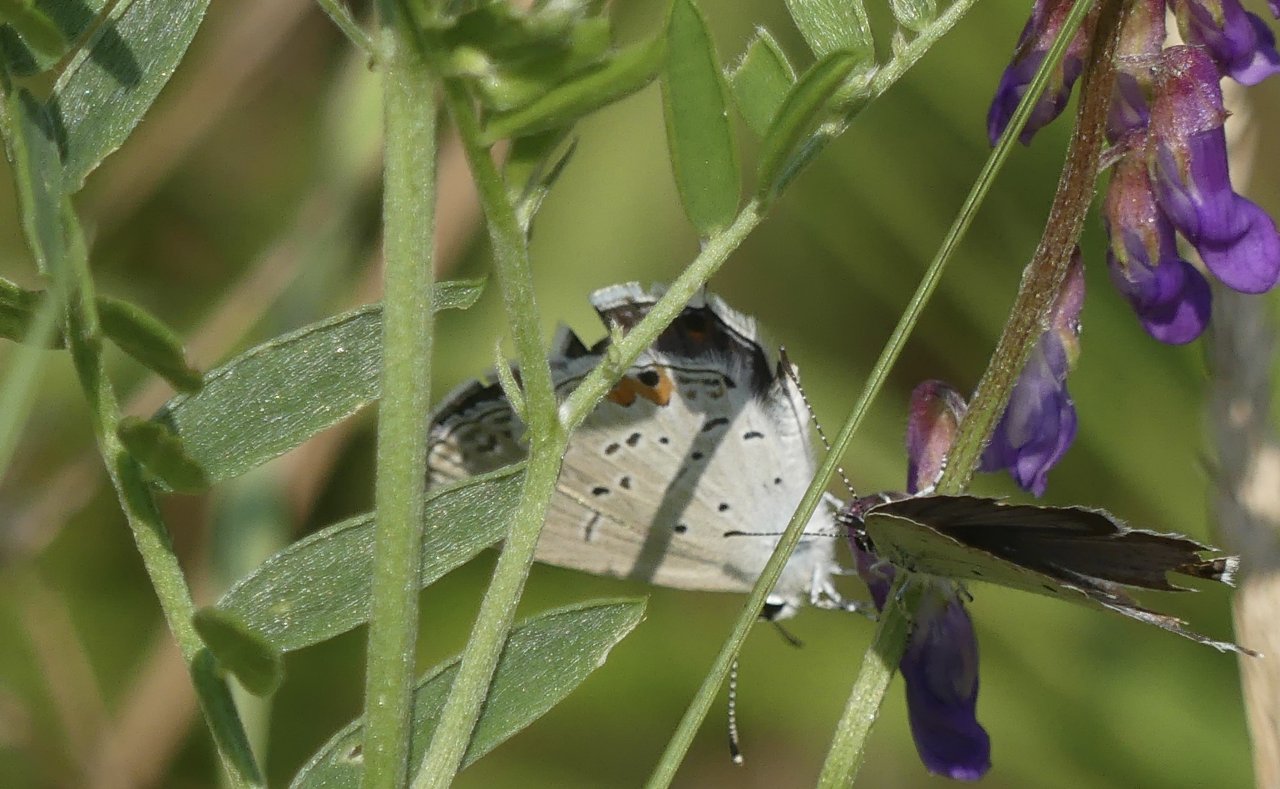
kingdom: Animalia
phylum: Arthropoda
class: Insecta
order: Lepidoptera
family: Lycaenidae
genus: Elkalyce
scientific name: Elkalyce comyntas
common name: Eastern Tailed-Blue
